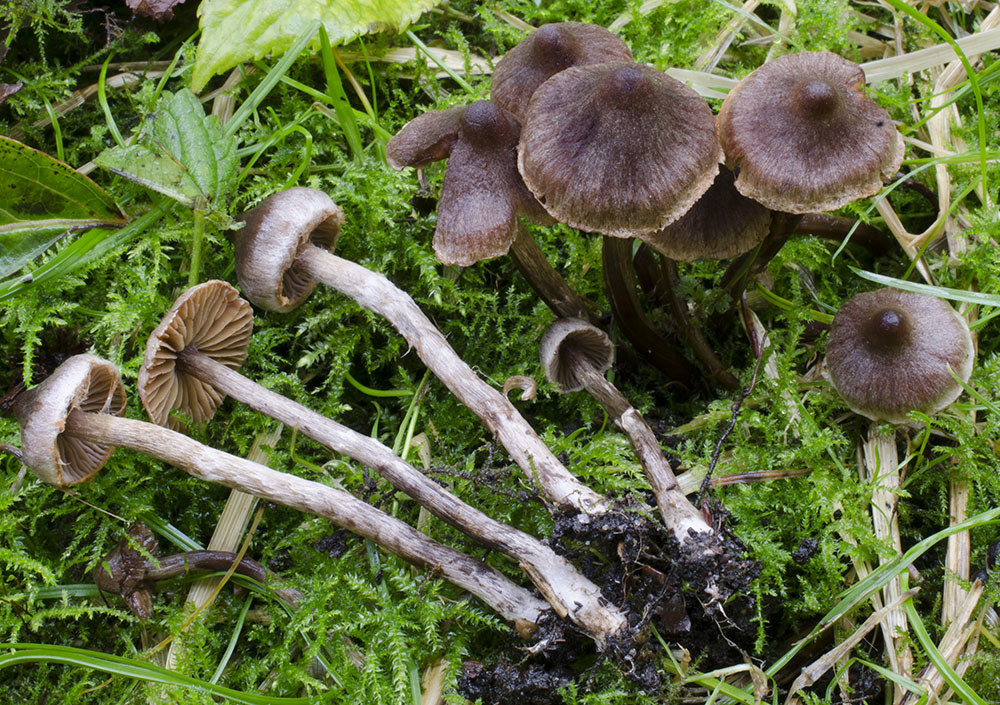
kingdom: Fungi
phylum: Basidiomycota
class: Agaricomycetes
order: Agaricales
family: Cortinariaceae
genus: Cortinarius
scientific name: Cortinarius griseocarneus
